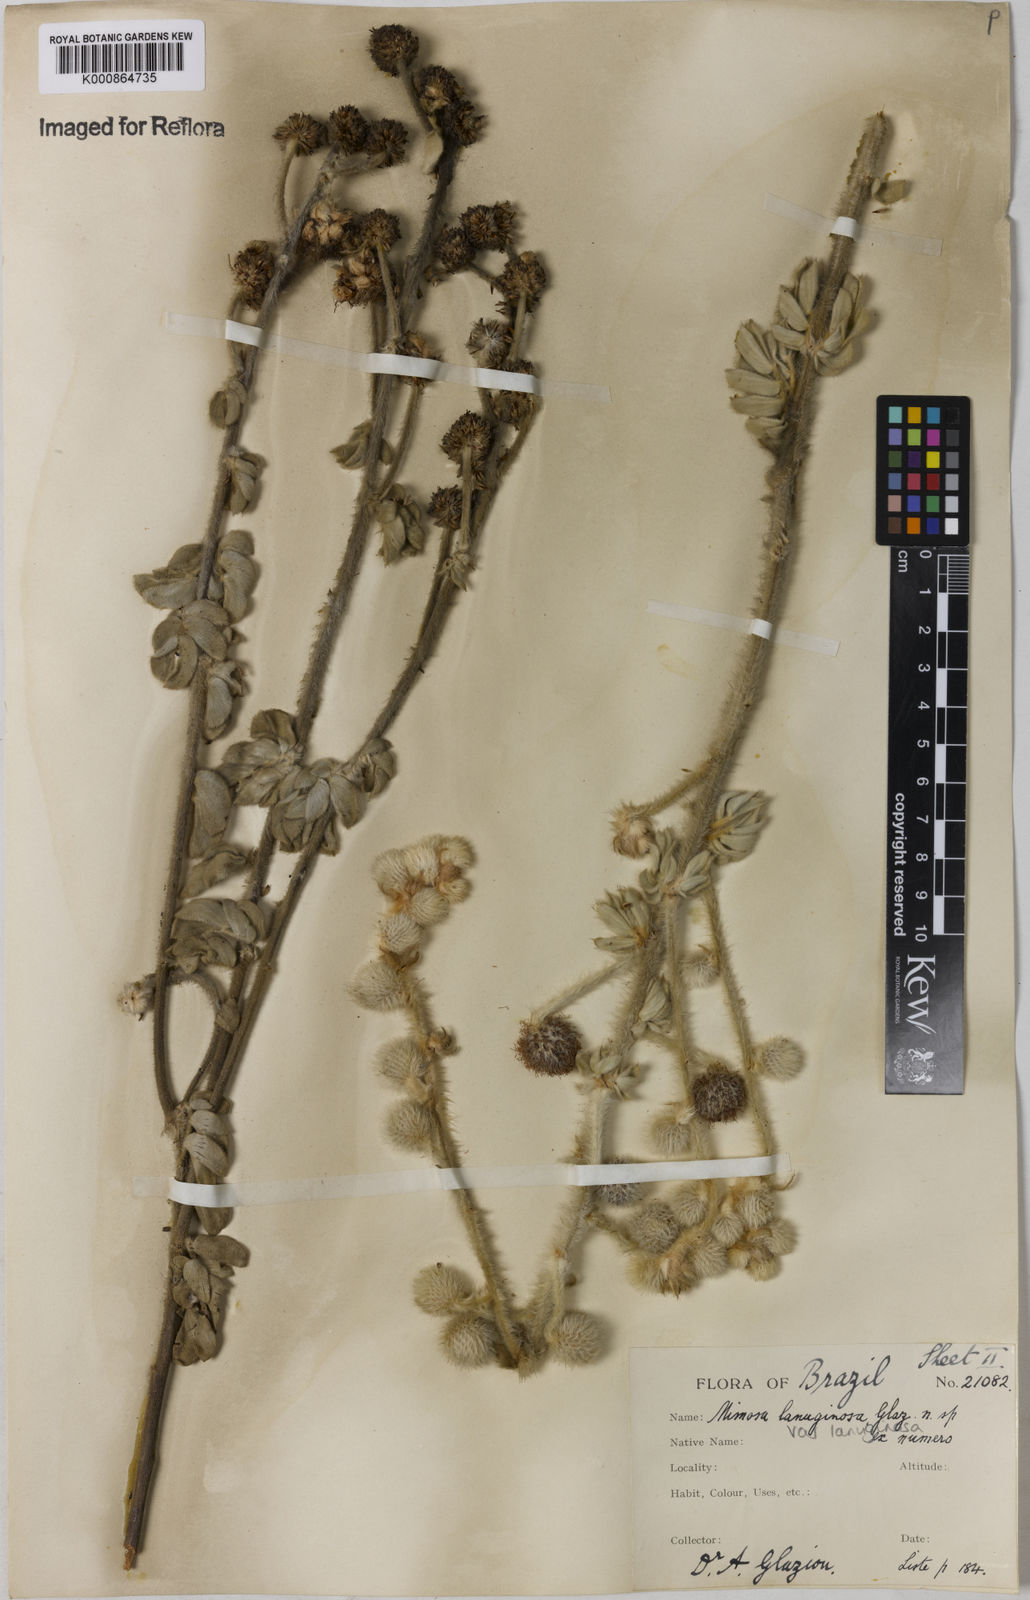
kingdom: Plantae
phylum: Tracheophyta
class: Magnoliopsida
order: Fabales
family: Fabaceae
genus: Mimosa
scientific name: Mimosa lanuginosa
